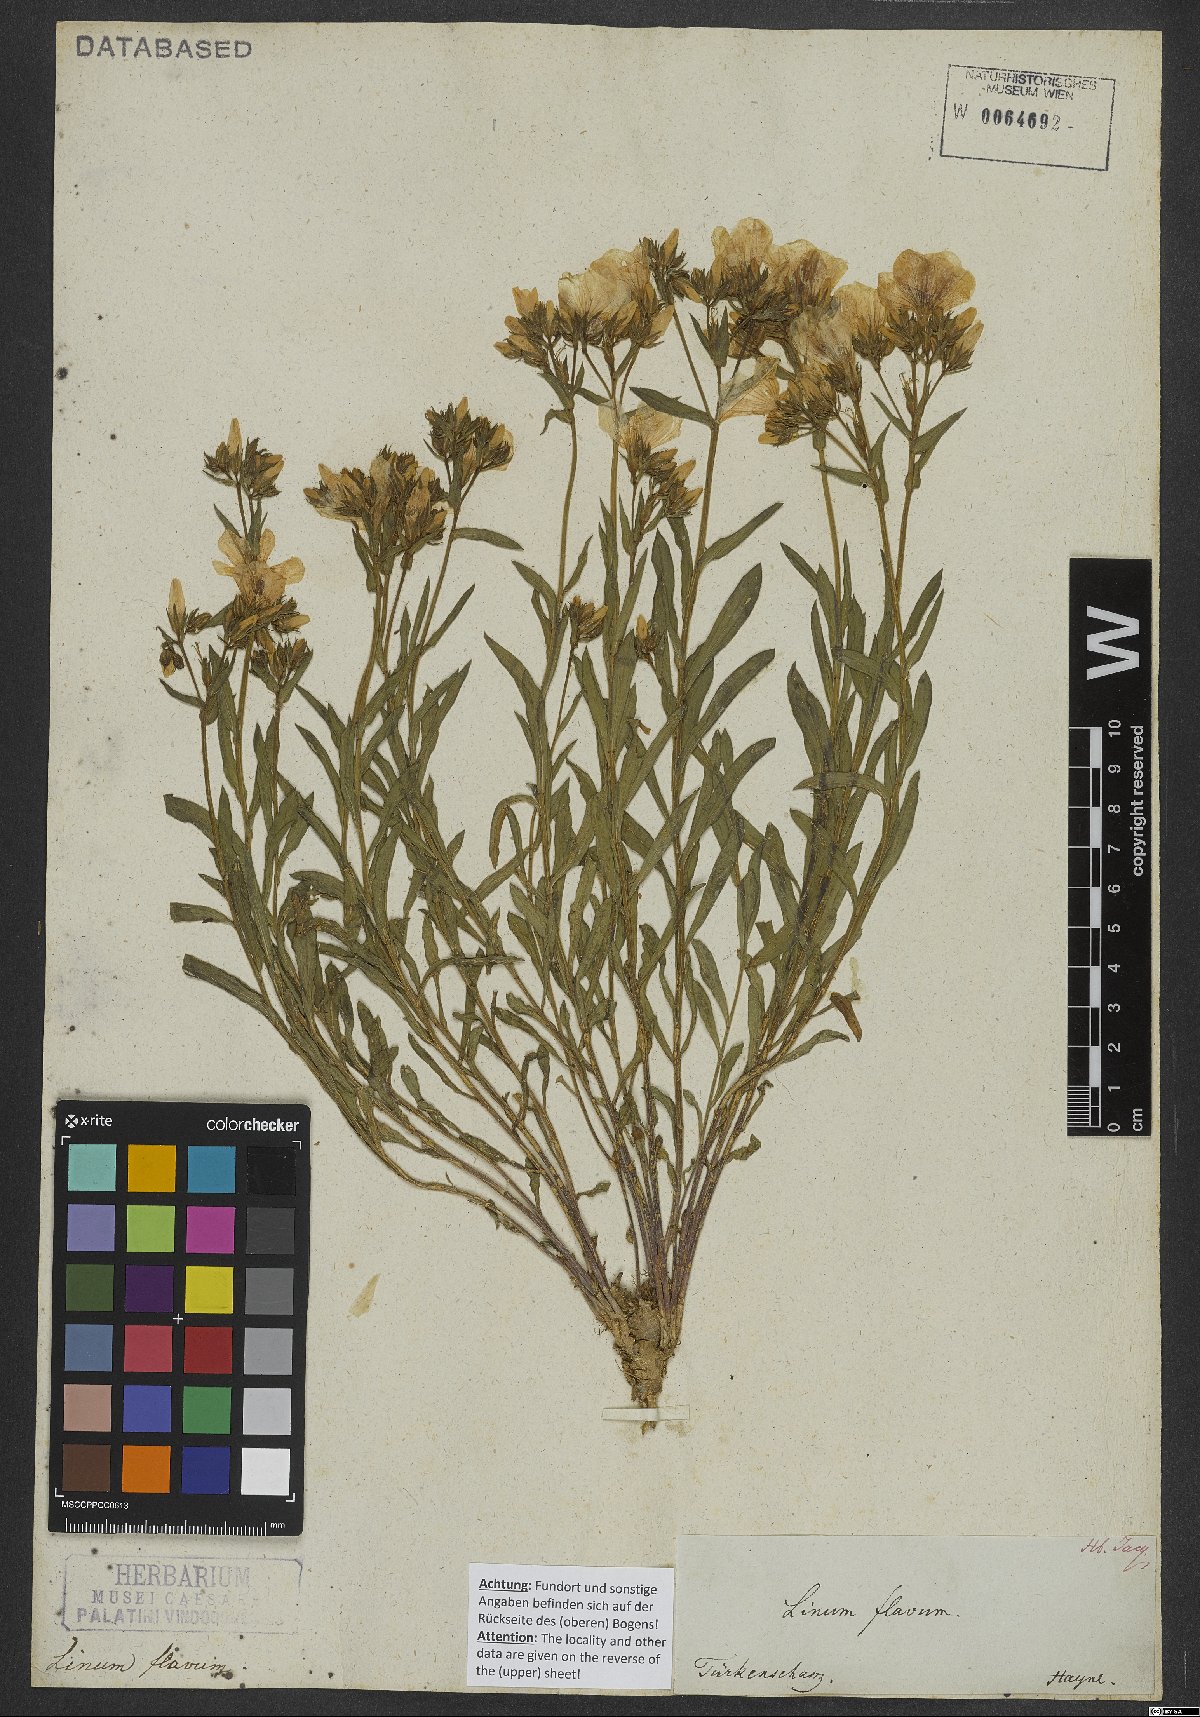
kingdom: Plantae
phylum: Tracheophyta
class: Magnoliopsida
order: Malpighiales
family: Linaceae
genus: Linum
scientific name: Linum flavum
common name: Yellow flax
